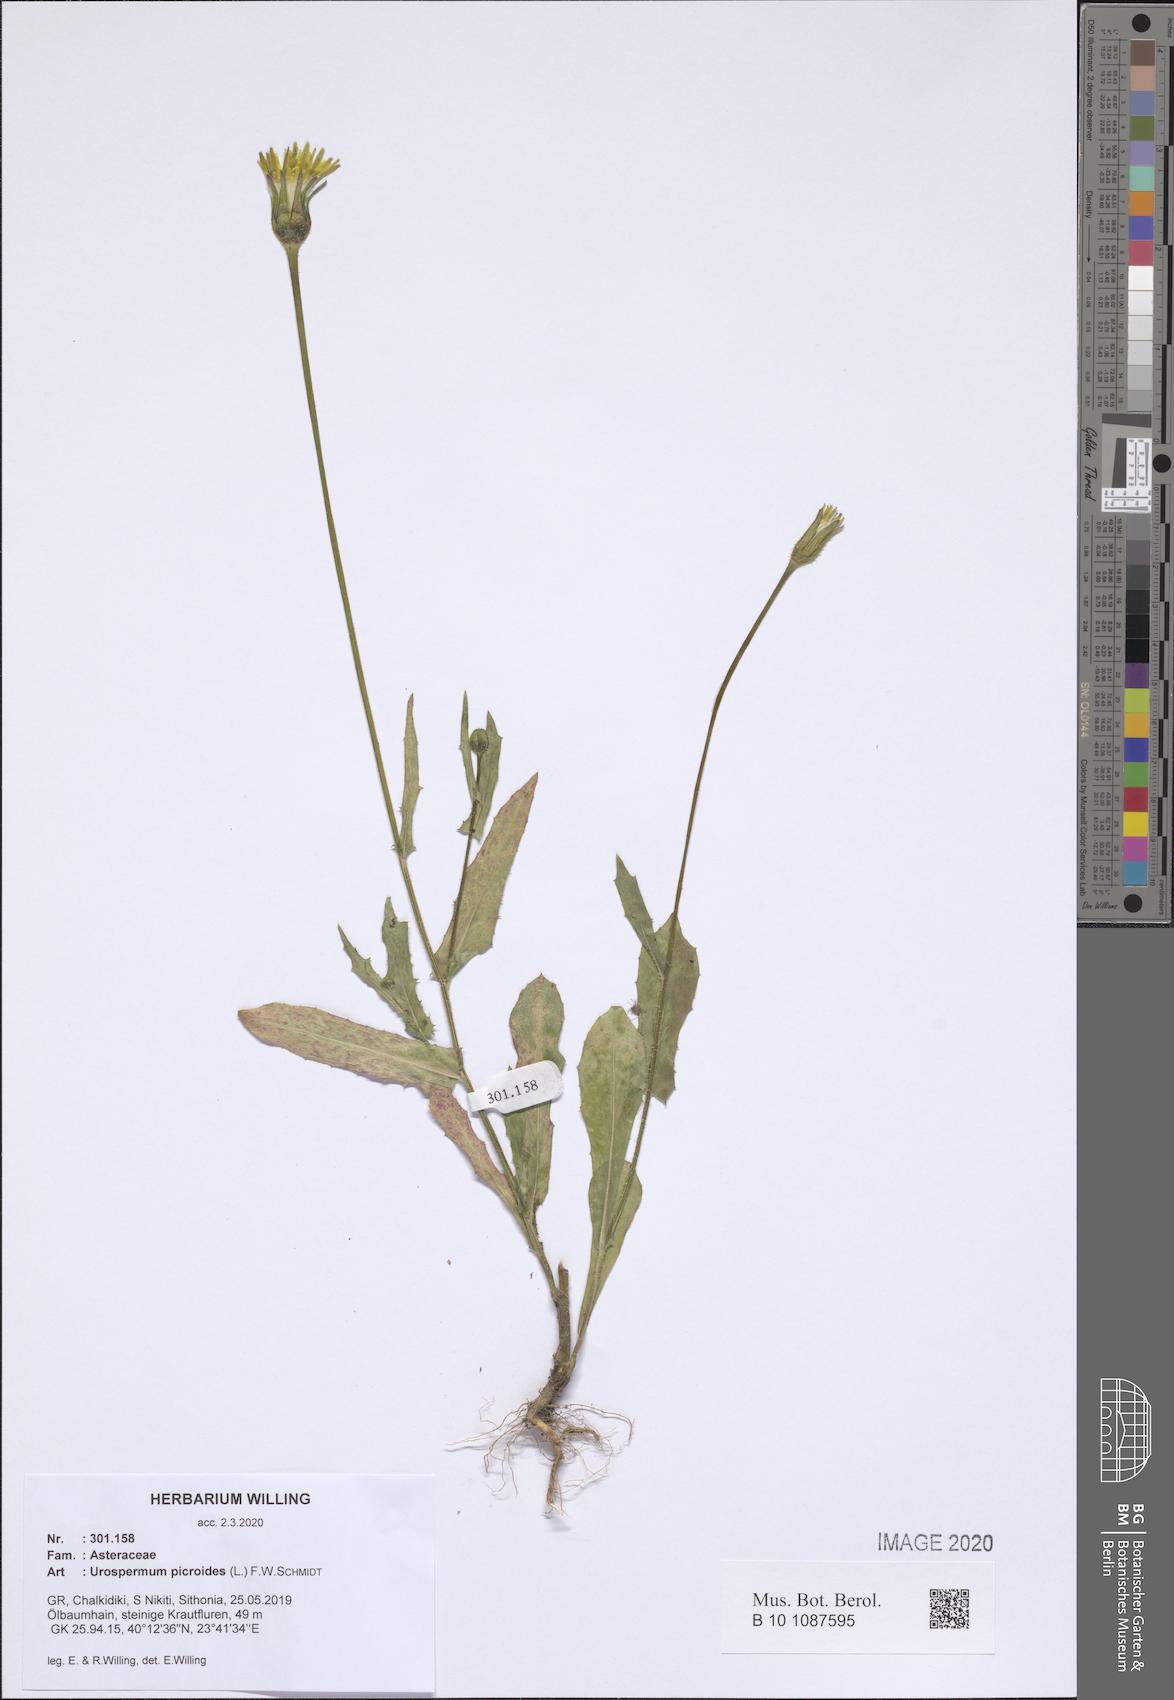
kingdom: Plantae
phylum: Tracheophyta
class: Magnoliopsida
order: Asterales
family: Asteraceae
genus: Urospermum
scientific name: Urospermum picroides
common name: False hawkbit
